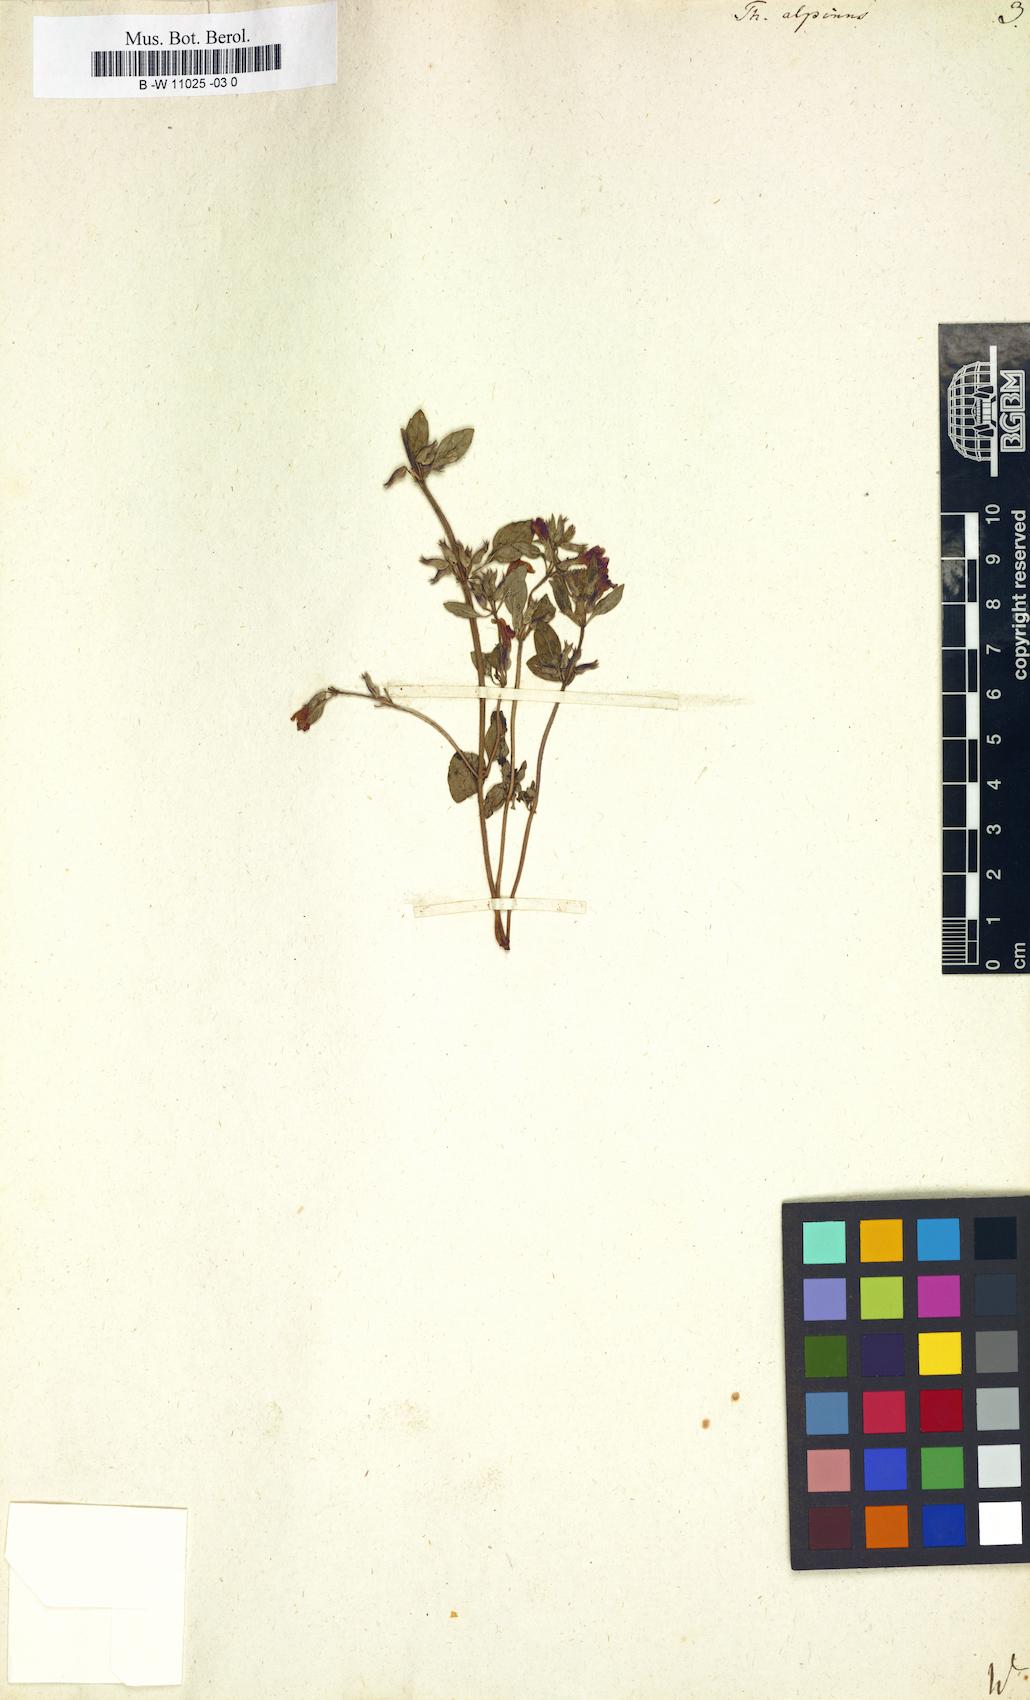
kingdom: Plantae
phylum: Tracheophyta
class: Magnoliopsida
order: Lamiales
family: Lamiaceae
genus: Thymus
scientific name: Thymus alpinus
